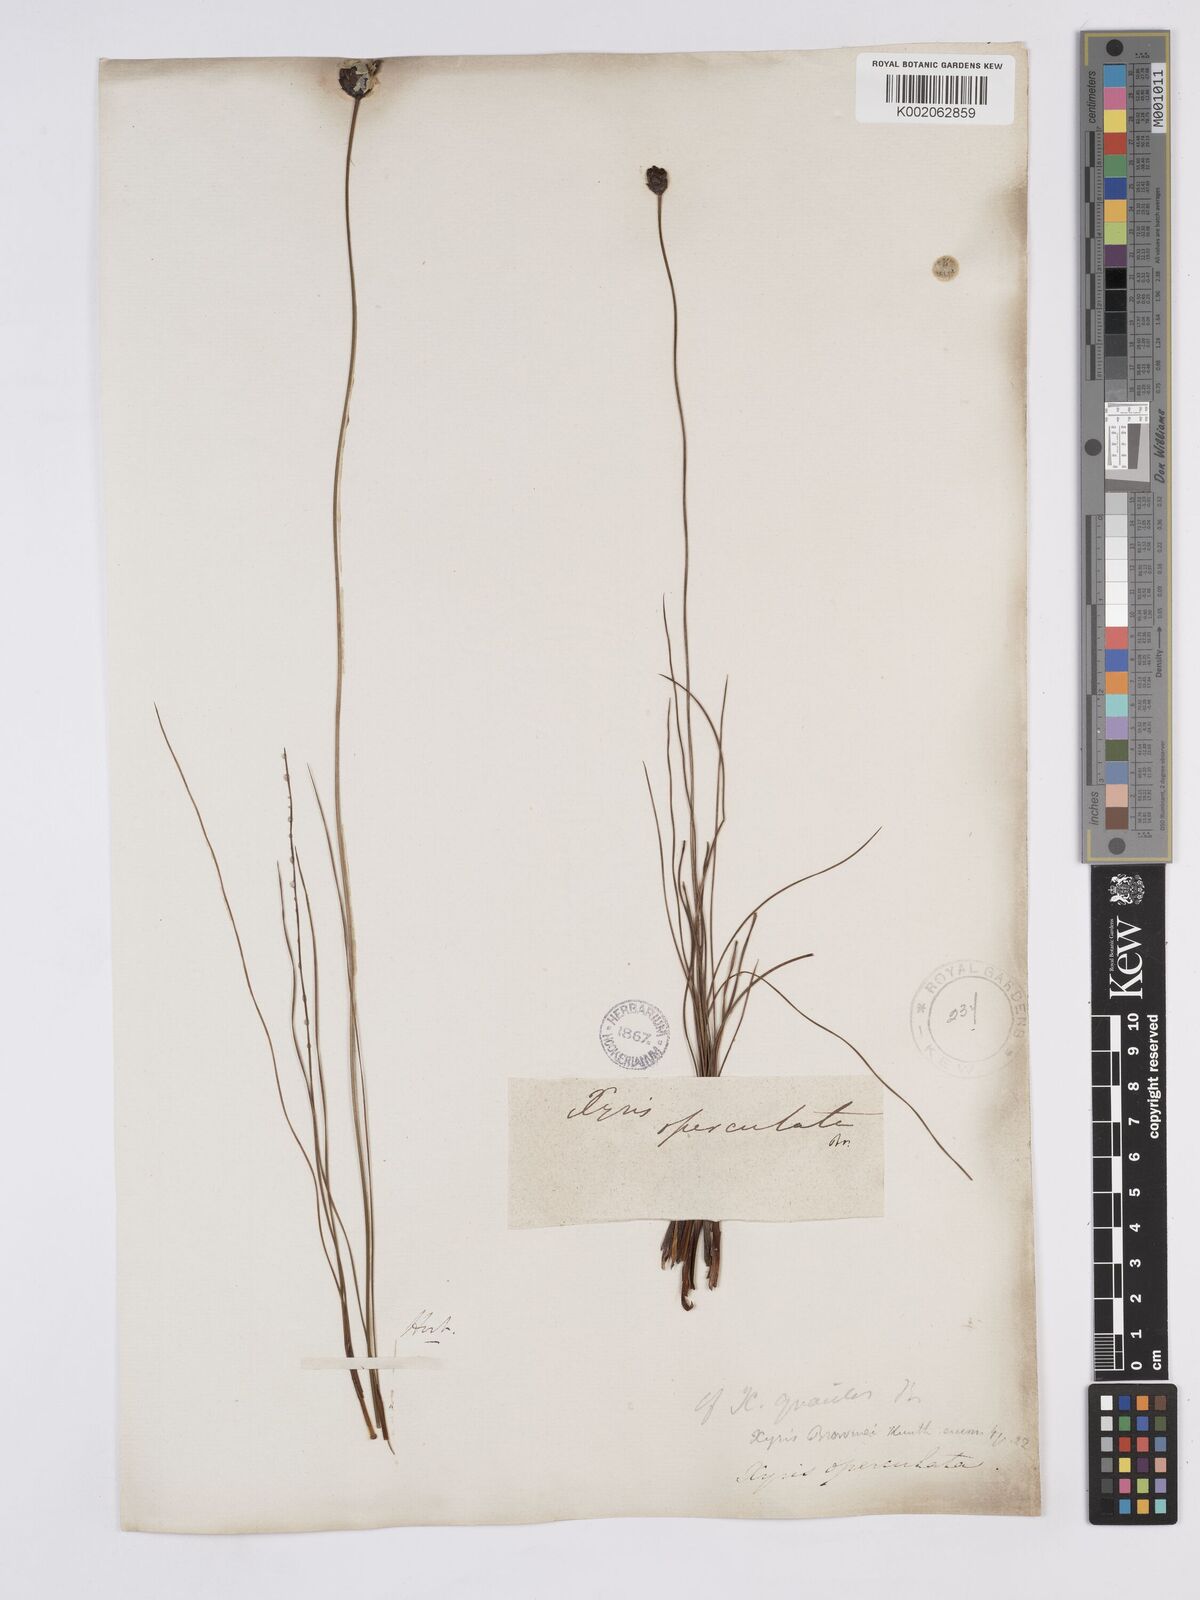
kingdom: Plantae
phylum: Tracheophyta
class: Liliopsida
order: Poales
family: Xyridaceae
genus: Xyris
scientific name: Xyris operculata
